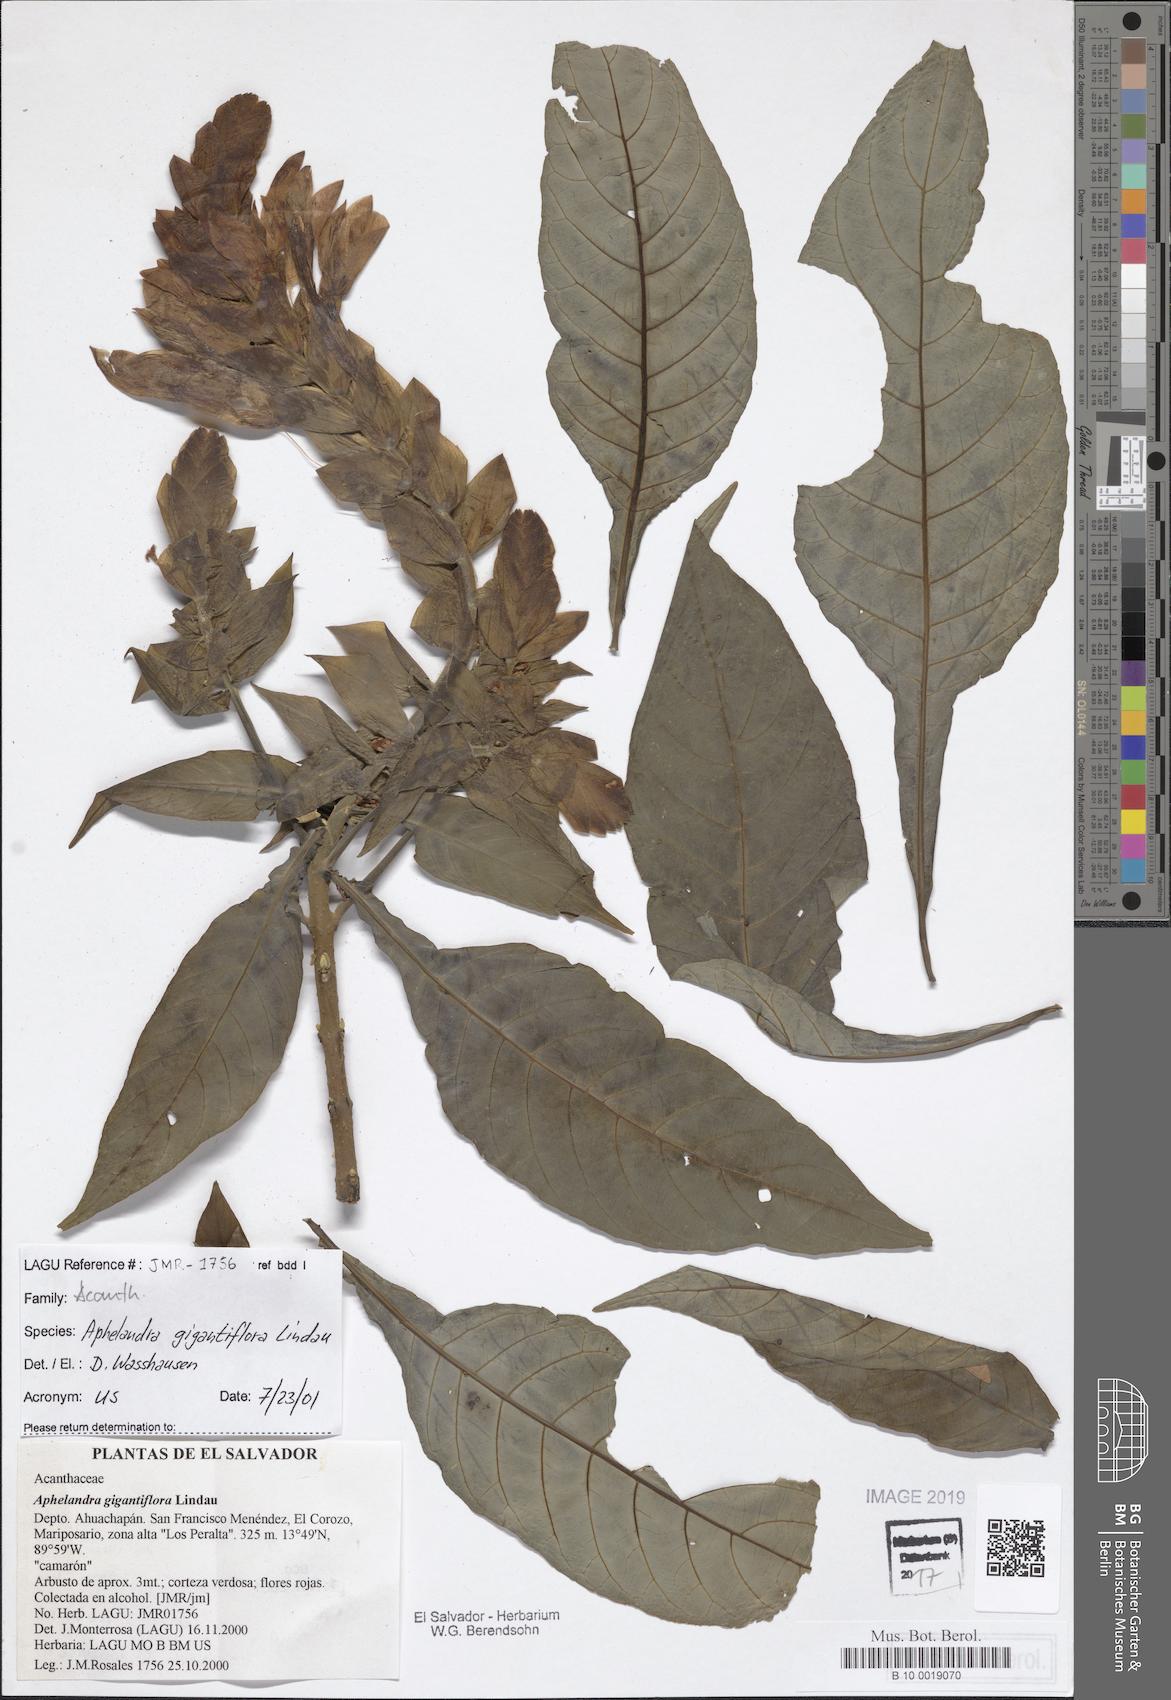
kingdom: Plantae
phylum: Tracheophyta
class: Magnoliopsida
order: Lamiales
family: Acanthaceae
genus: Aphelandra
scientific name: Aphelandra gigantiflora
